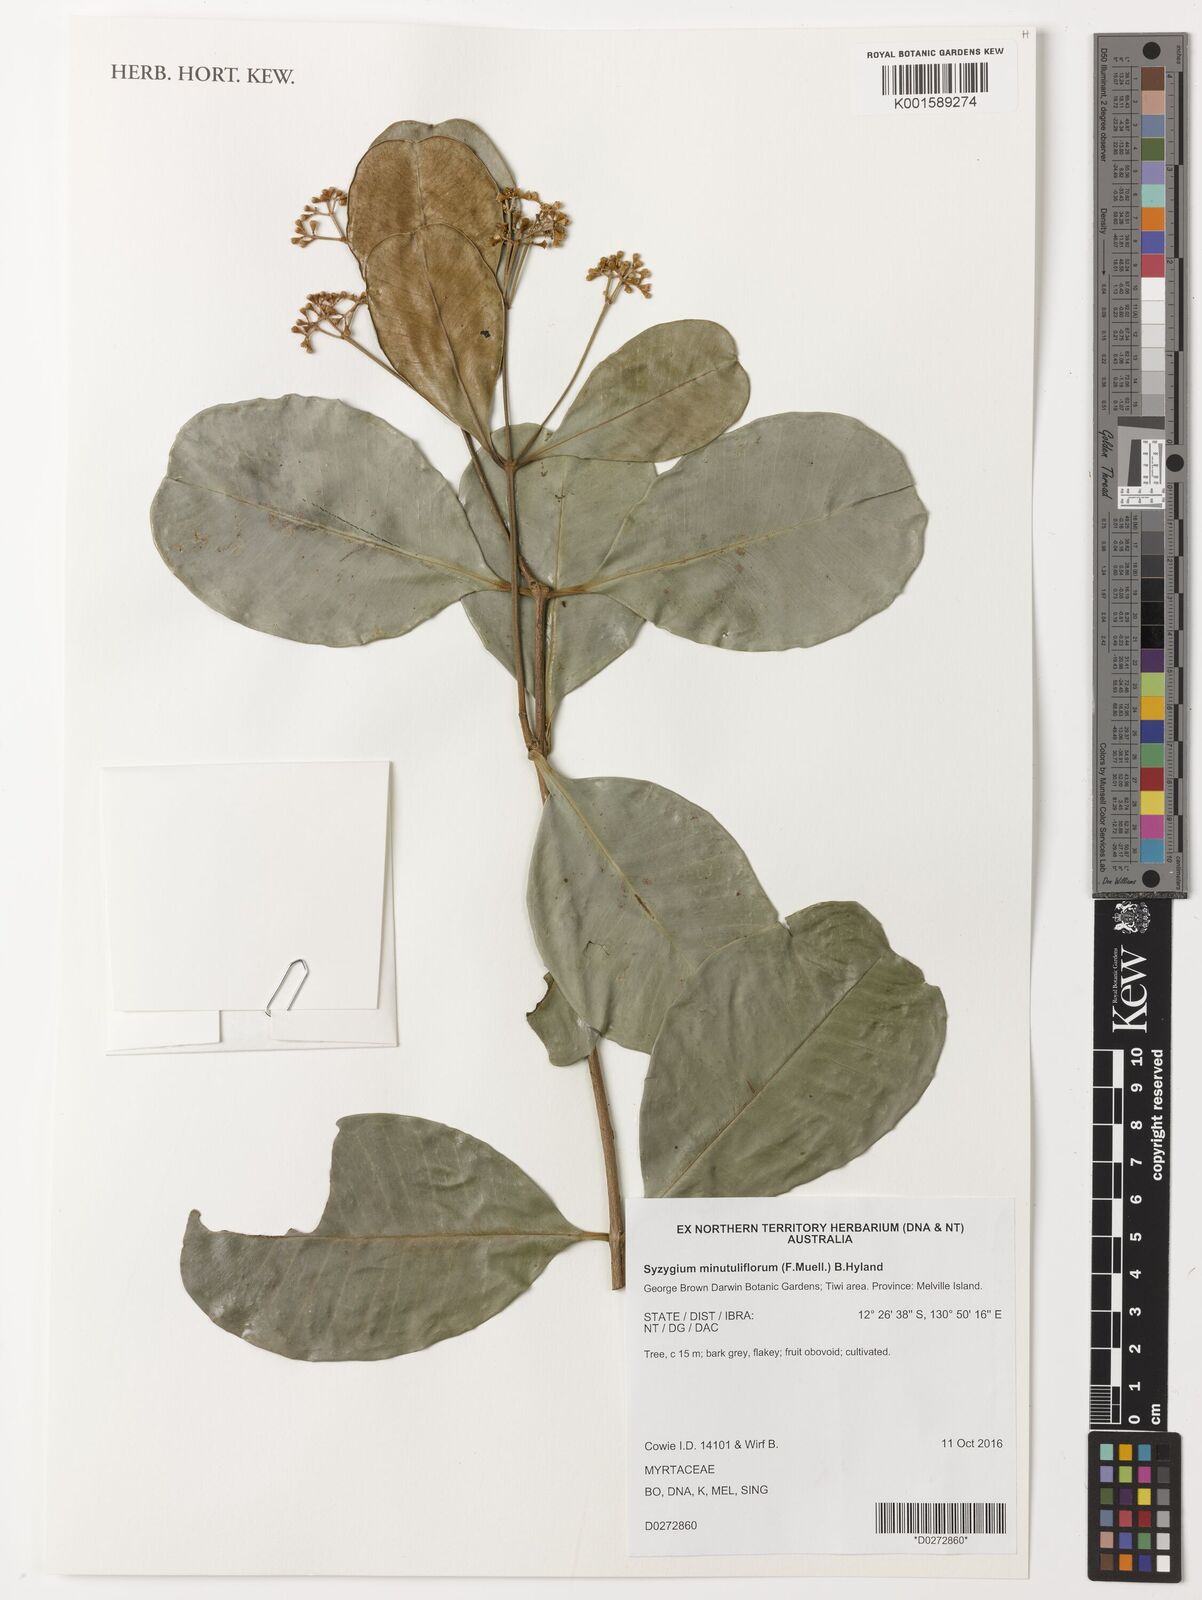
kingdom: Plantae
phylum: Tracheophyta
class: Magnoliopsida
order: Myrtales
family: Myrtaceae
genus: Syzygium
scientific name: Syzygium minutuliflorum
